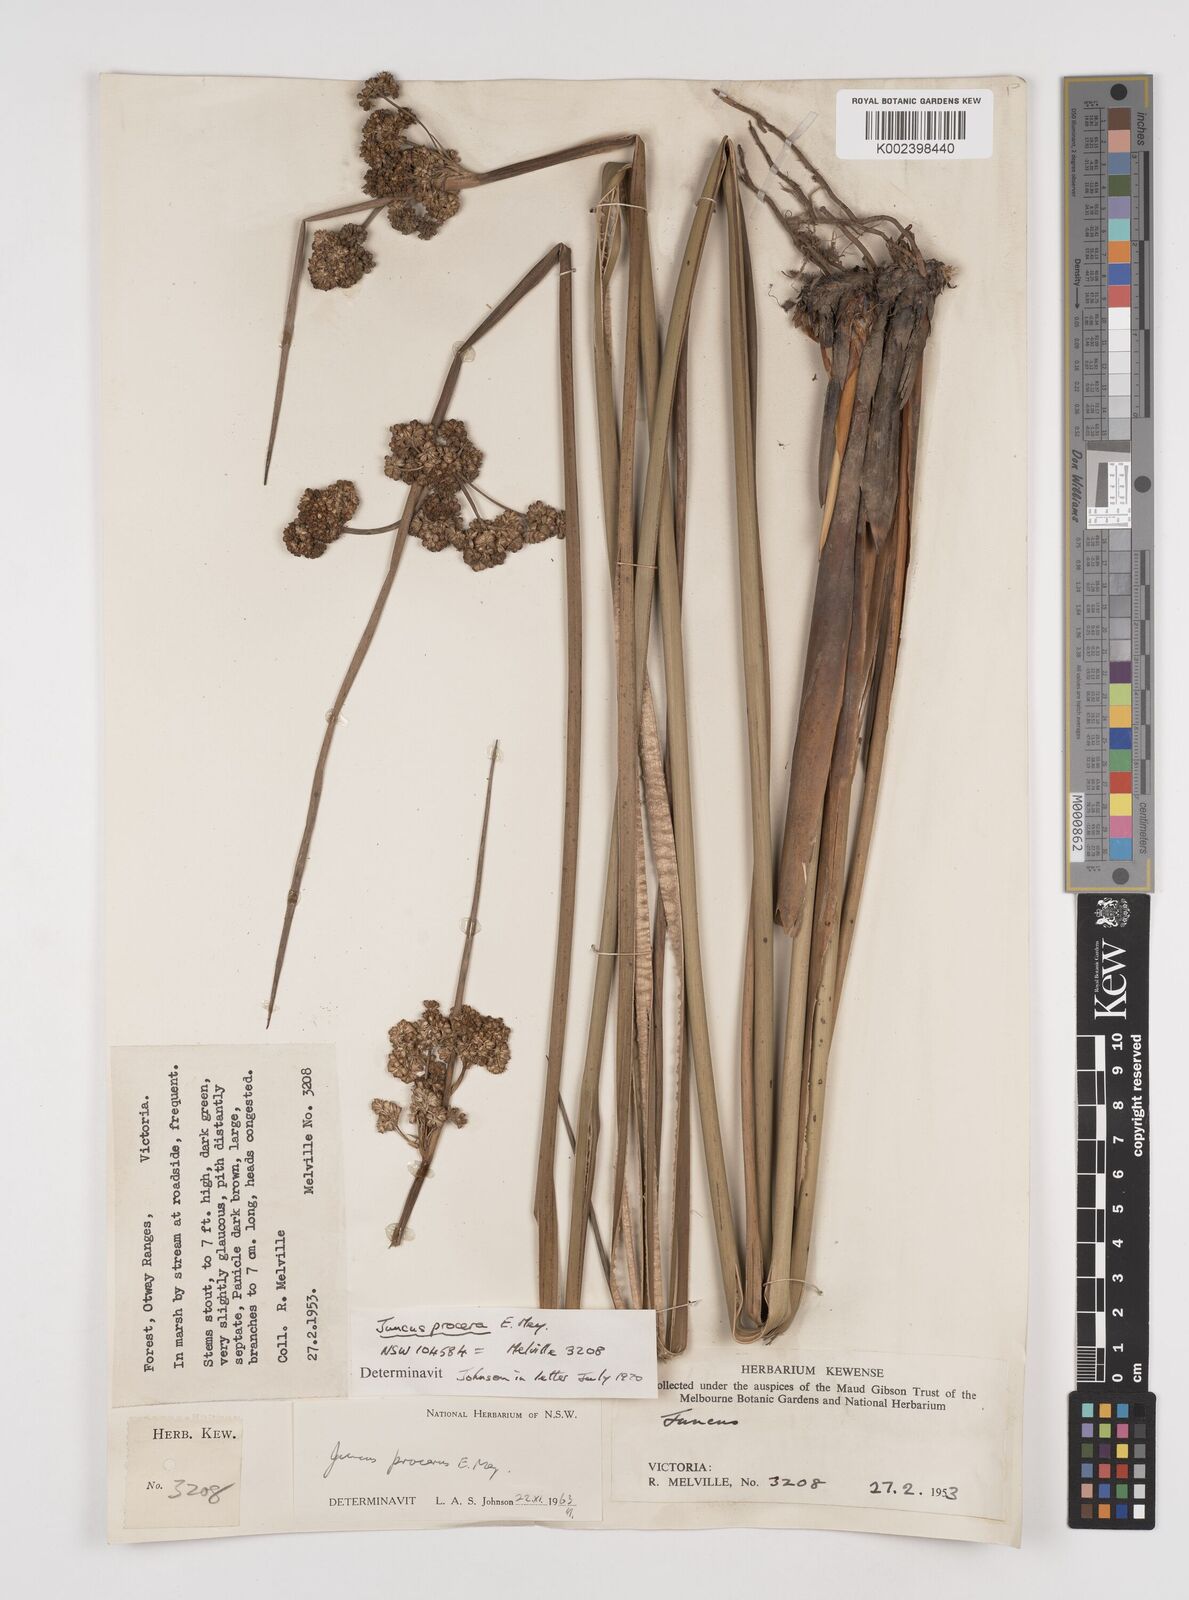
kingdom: Plantae
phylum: Tracheophyta
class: Liliopsida
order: Poales
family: Juncaceae
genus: Juncus
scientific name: Juncus procerus
